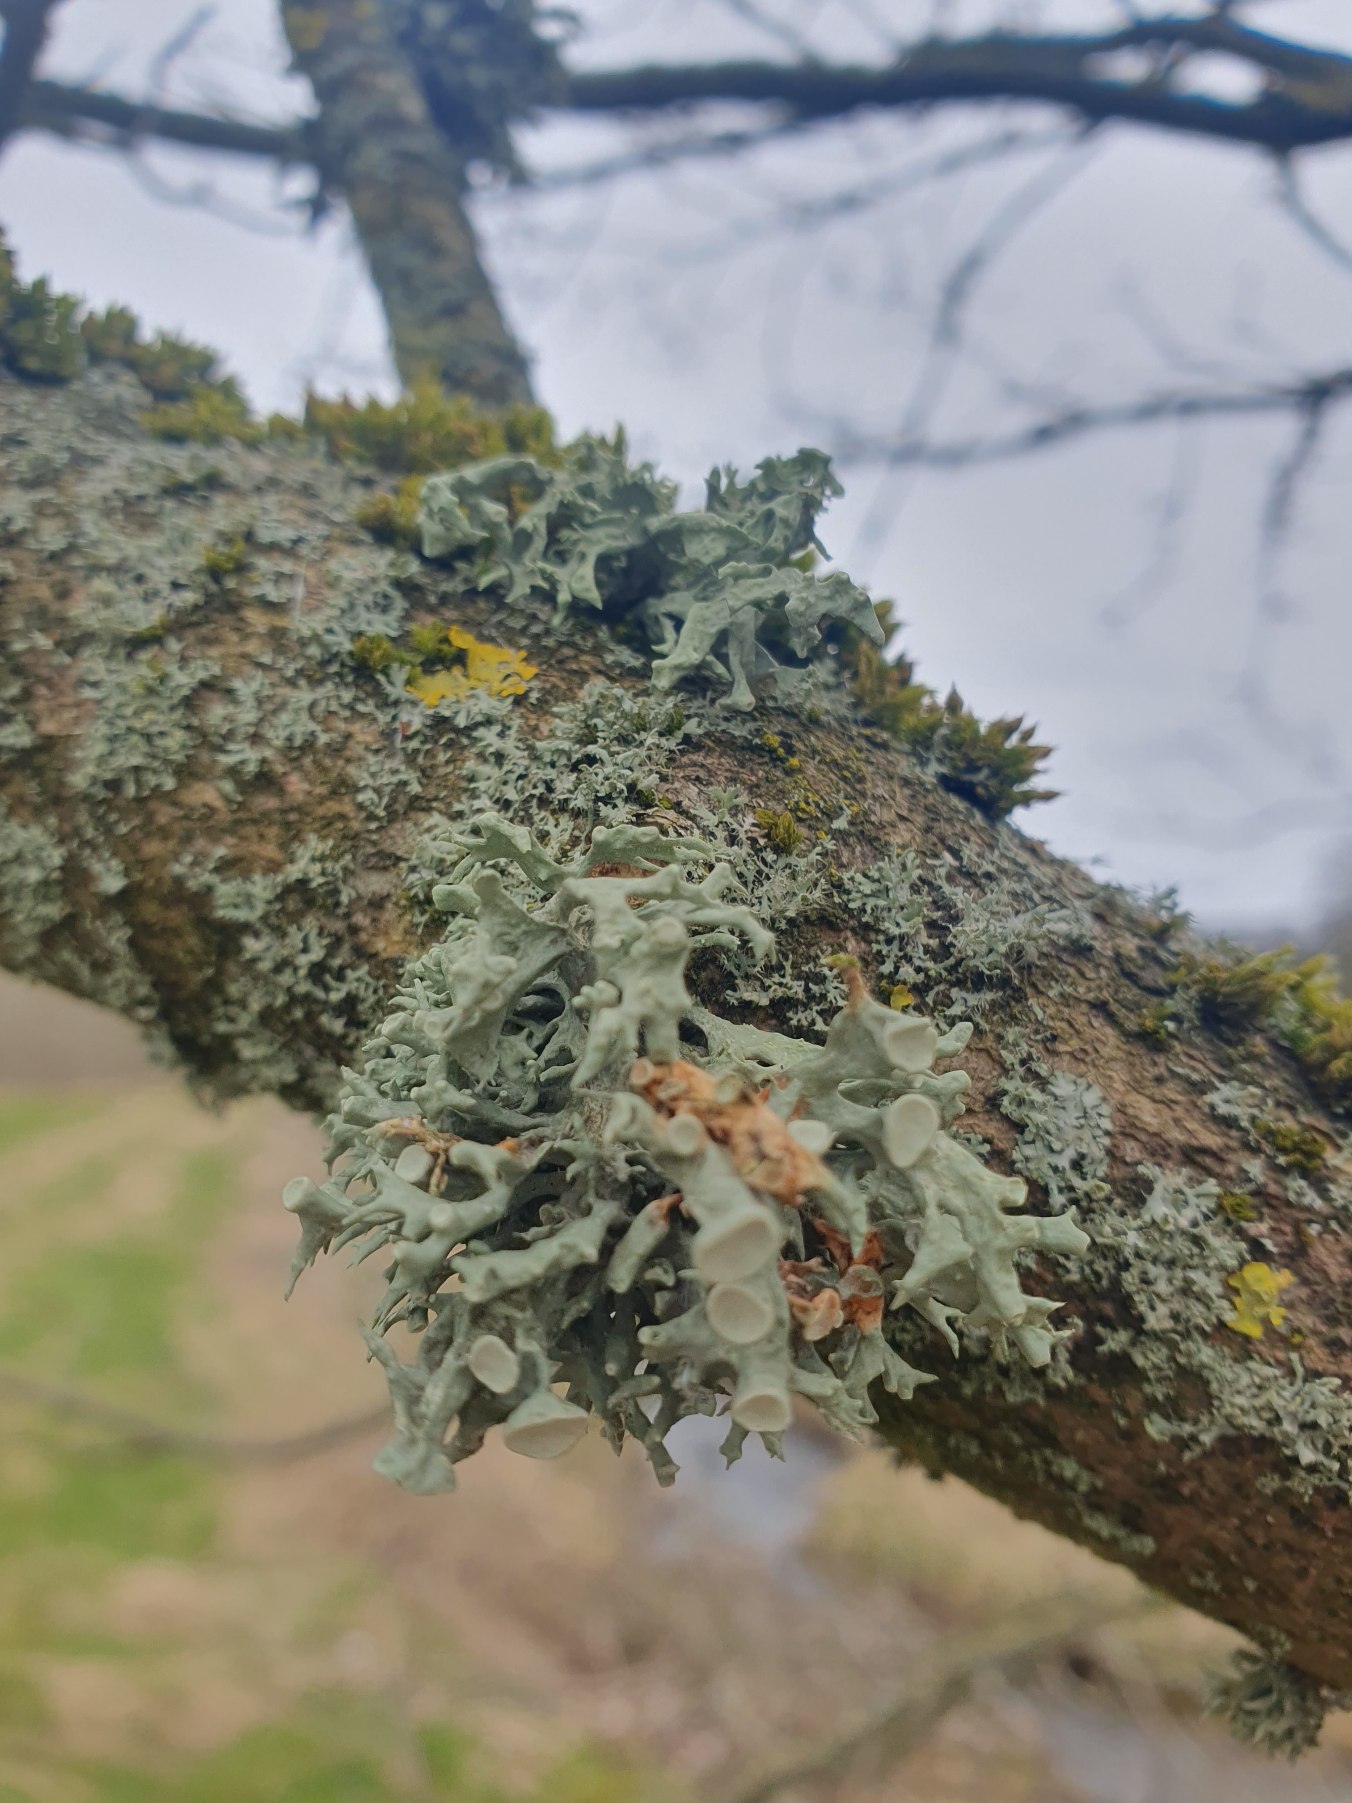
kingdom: Fungi
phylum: Ascomycota
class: Lecanoromycetes
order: Lecanorales
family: Ramalinaceae
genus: Ramalina
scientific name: Ramalina fastigiata
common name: Tue-grenlav
